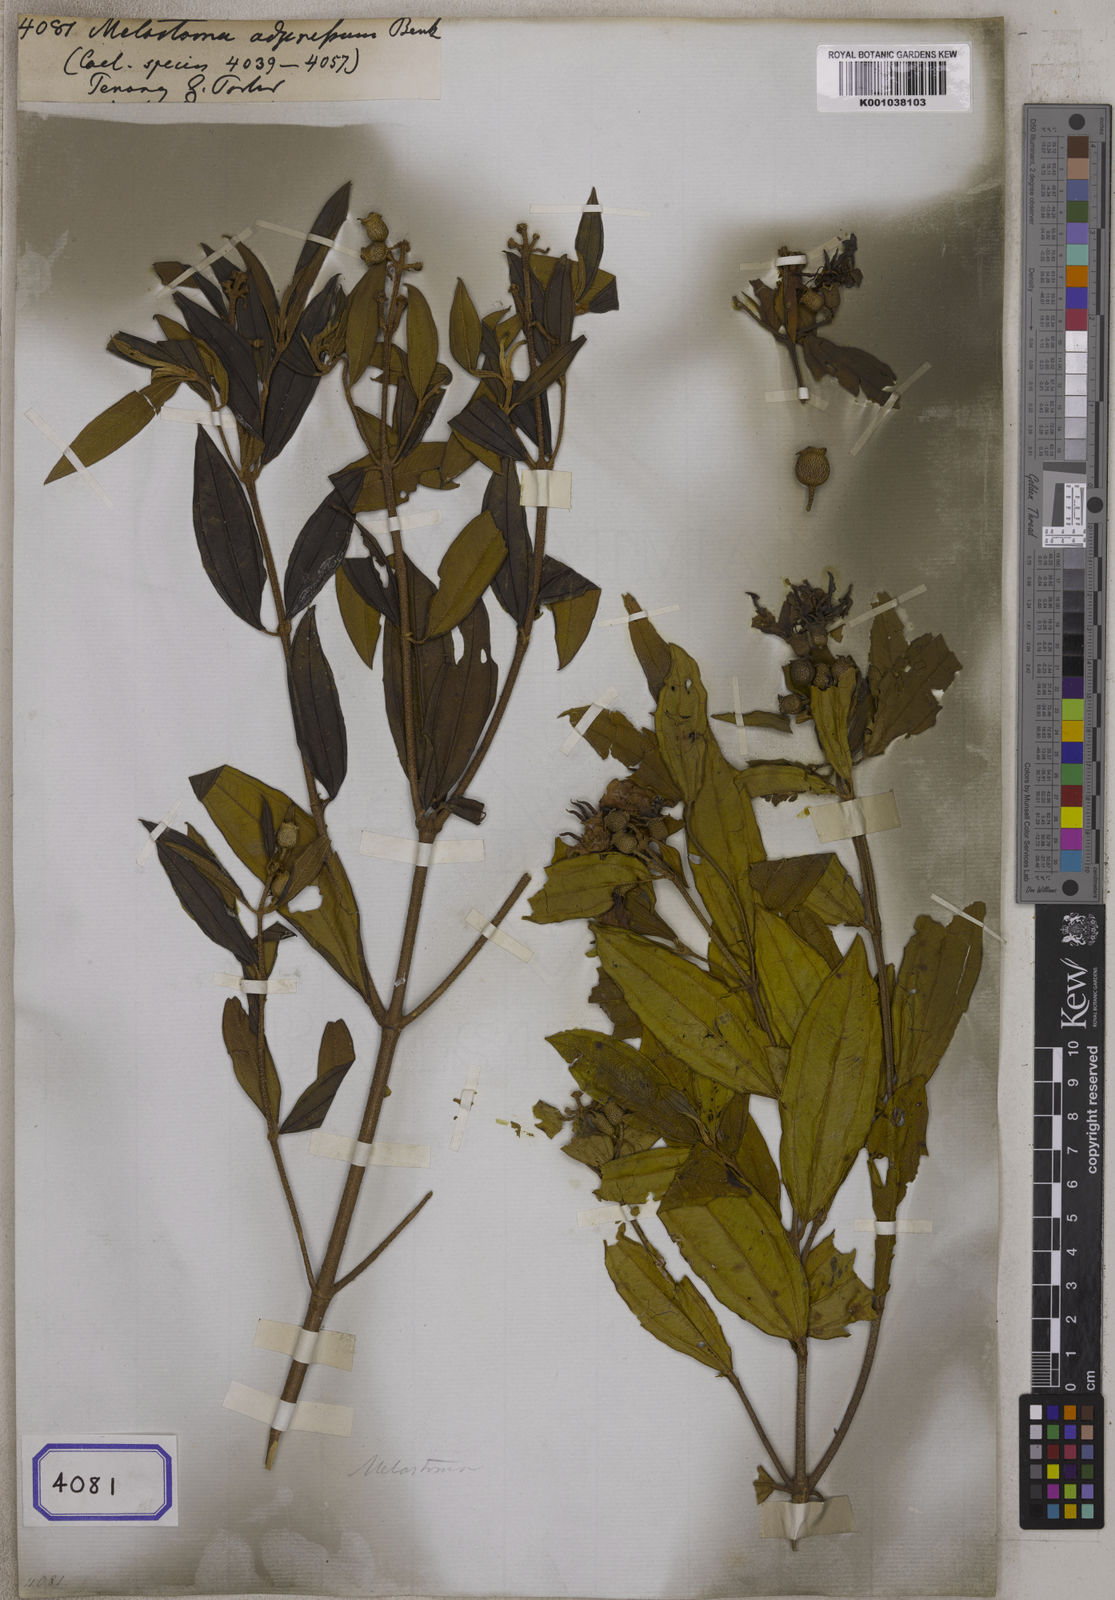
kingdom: Plantae
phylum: Tracheophyta
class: Magnoliopsida
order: Myrtales
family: Melastomataceae
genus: Melastoma
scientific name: Melastoma malabathricum
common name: Indian-rhododendron
